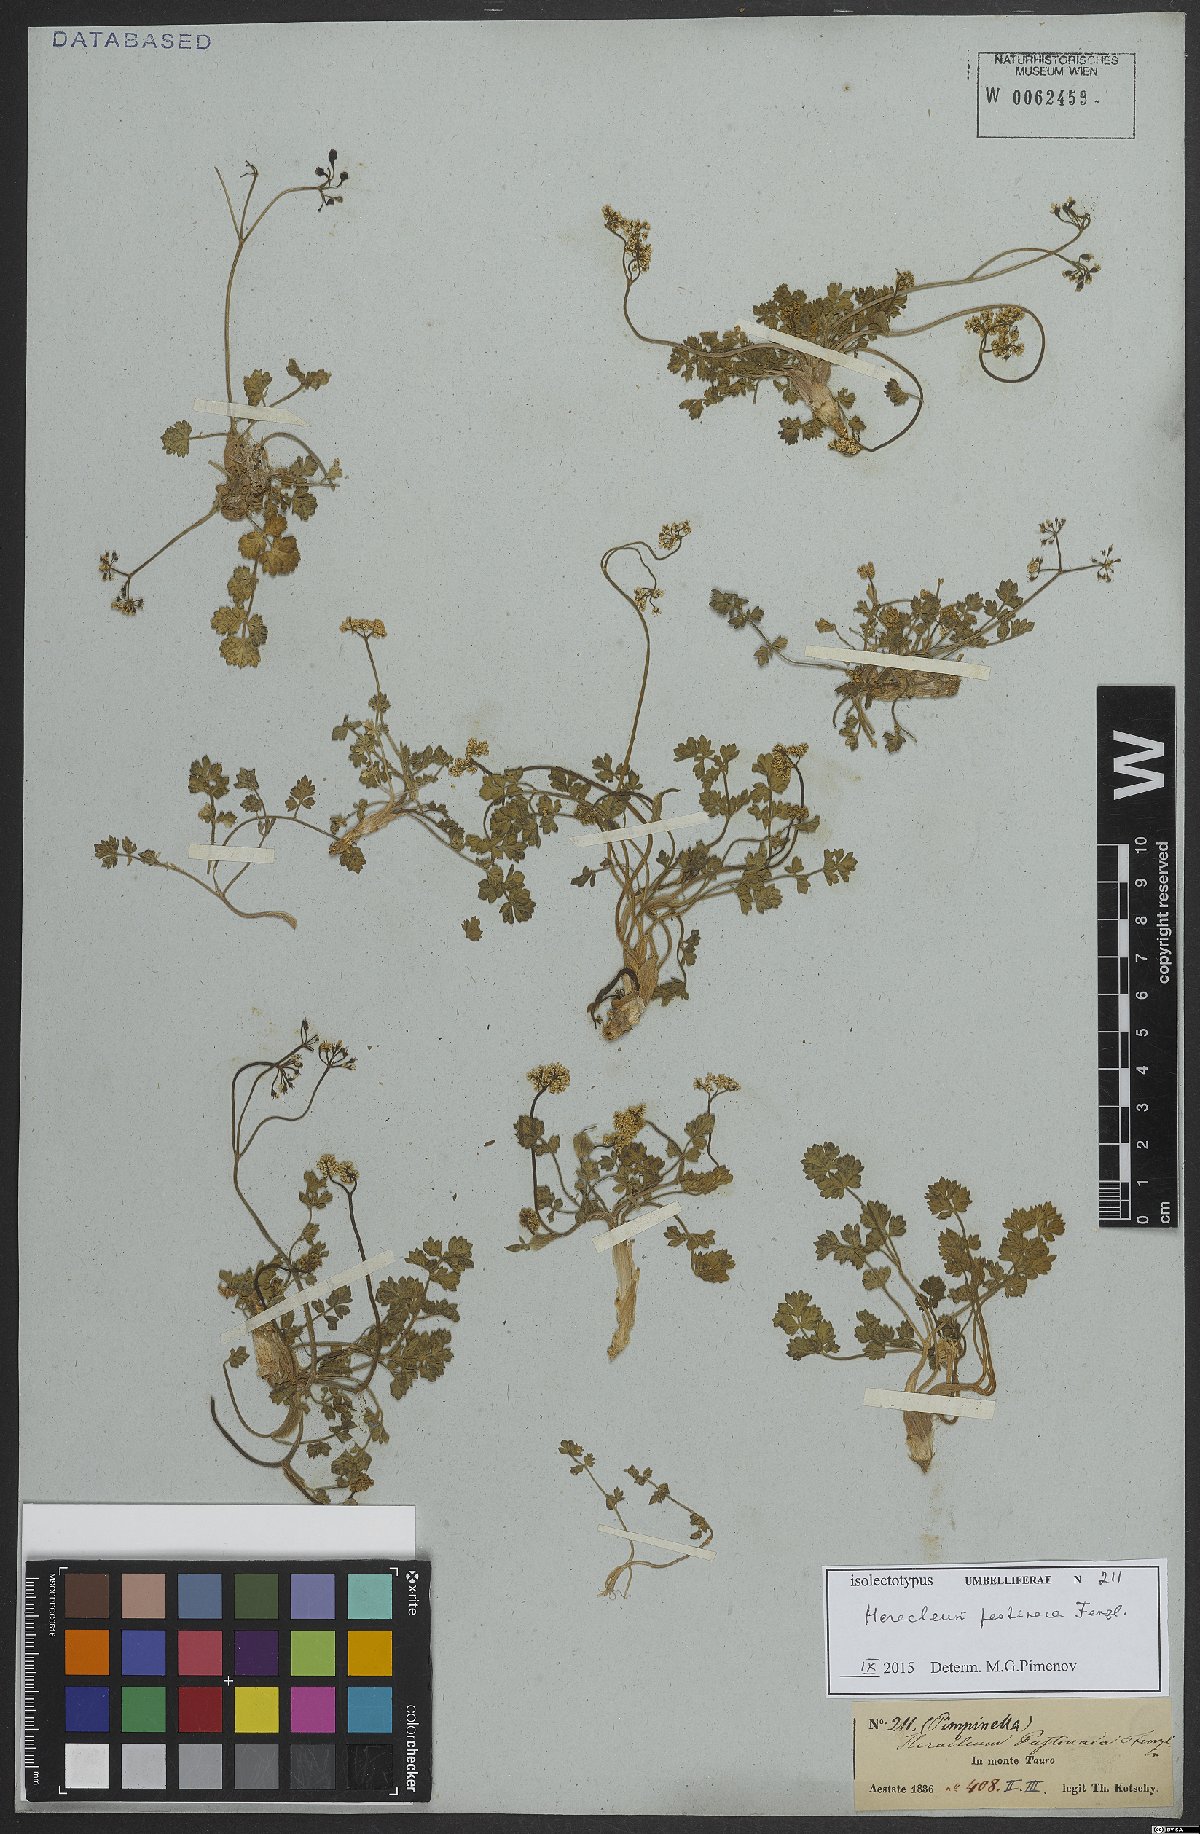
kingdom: Plantae
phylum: Tracheophyta
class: Magnoliopsida
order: Apiales
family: Apiaceae
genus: Heracleum
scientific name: Heracleum pastinaca
